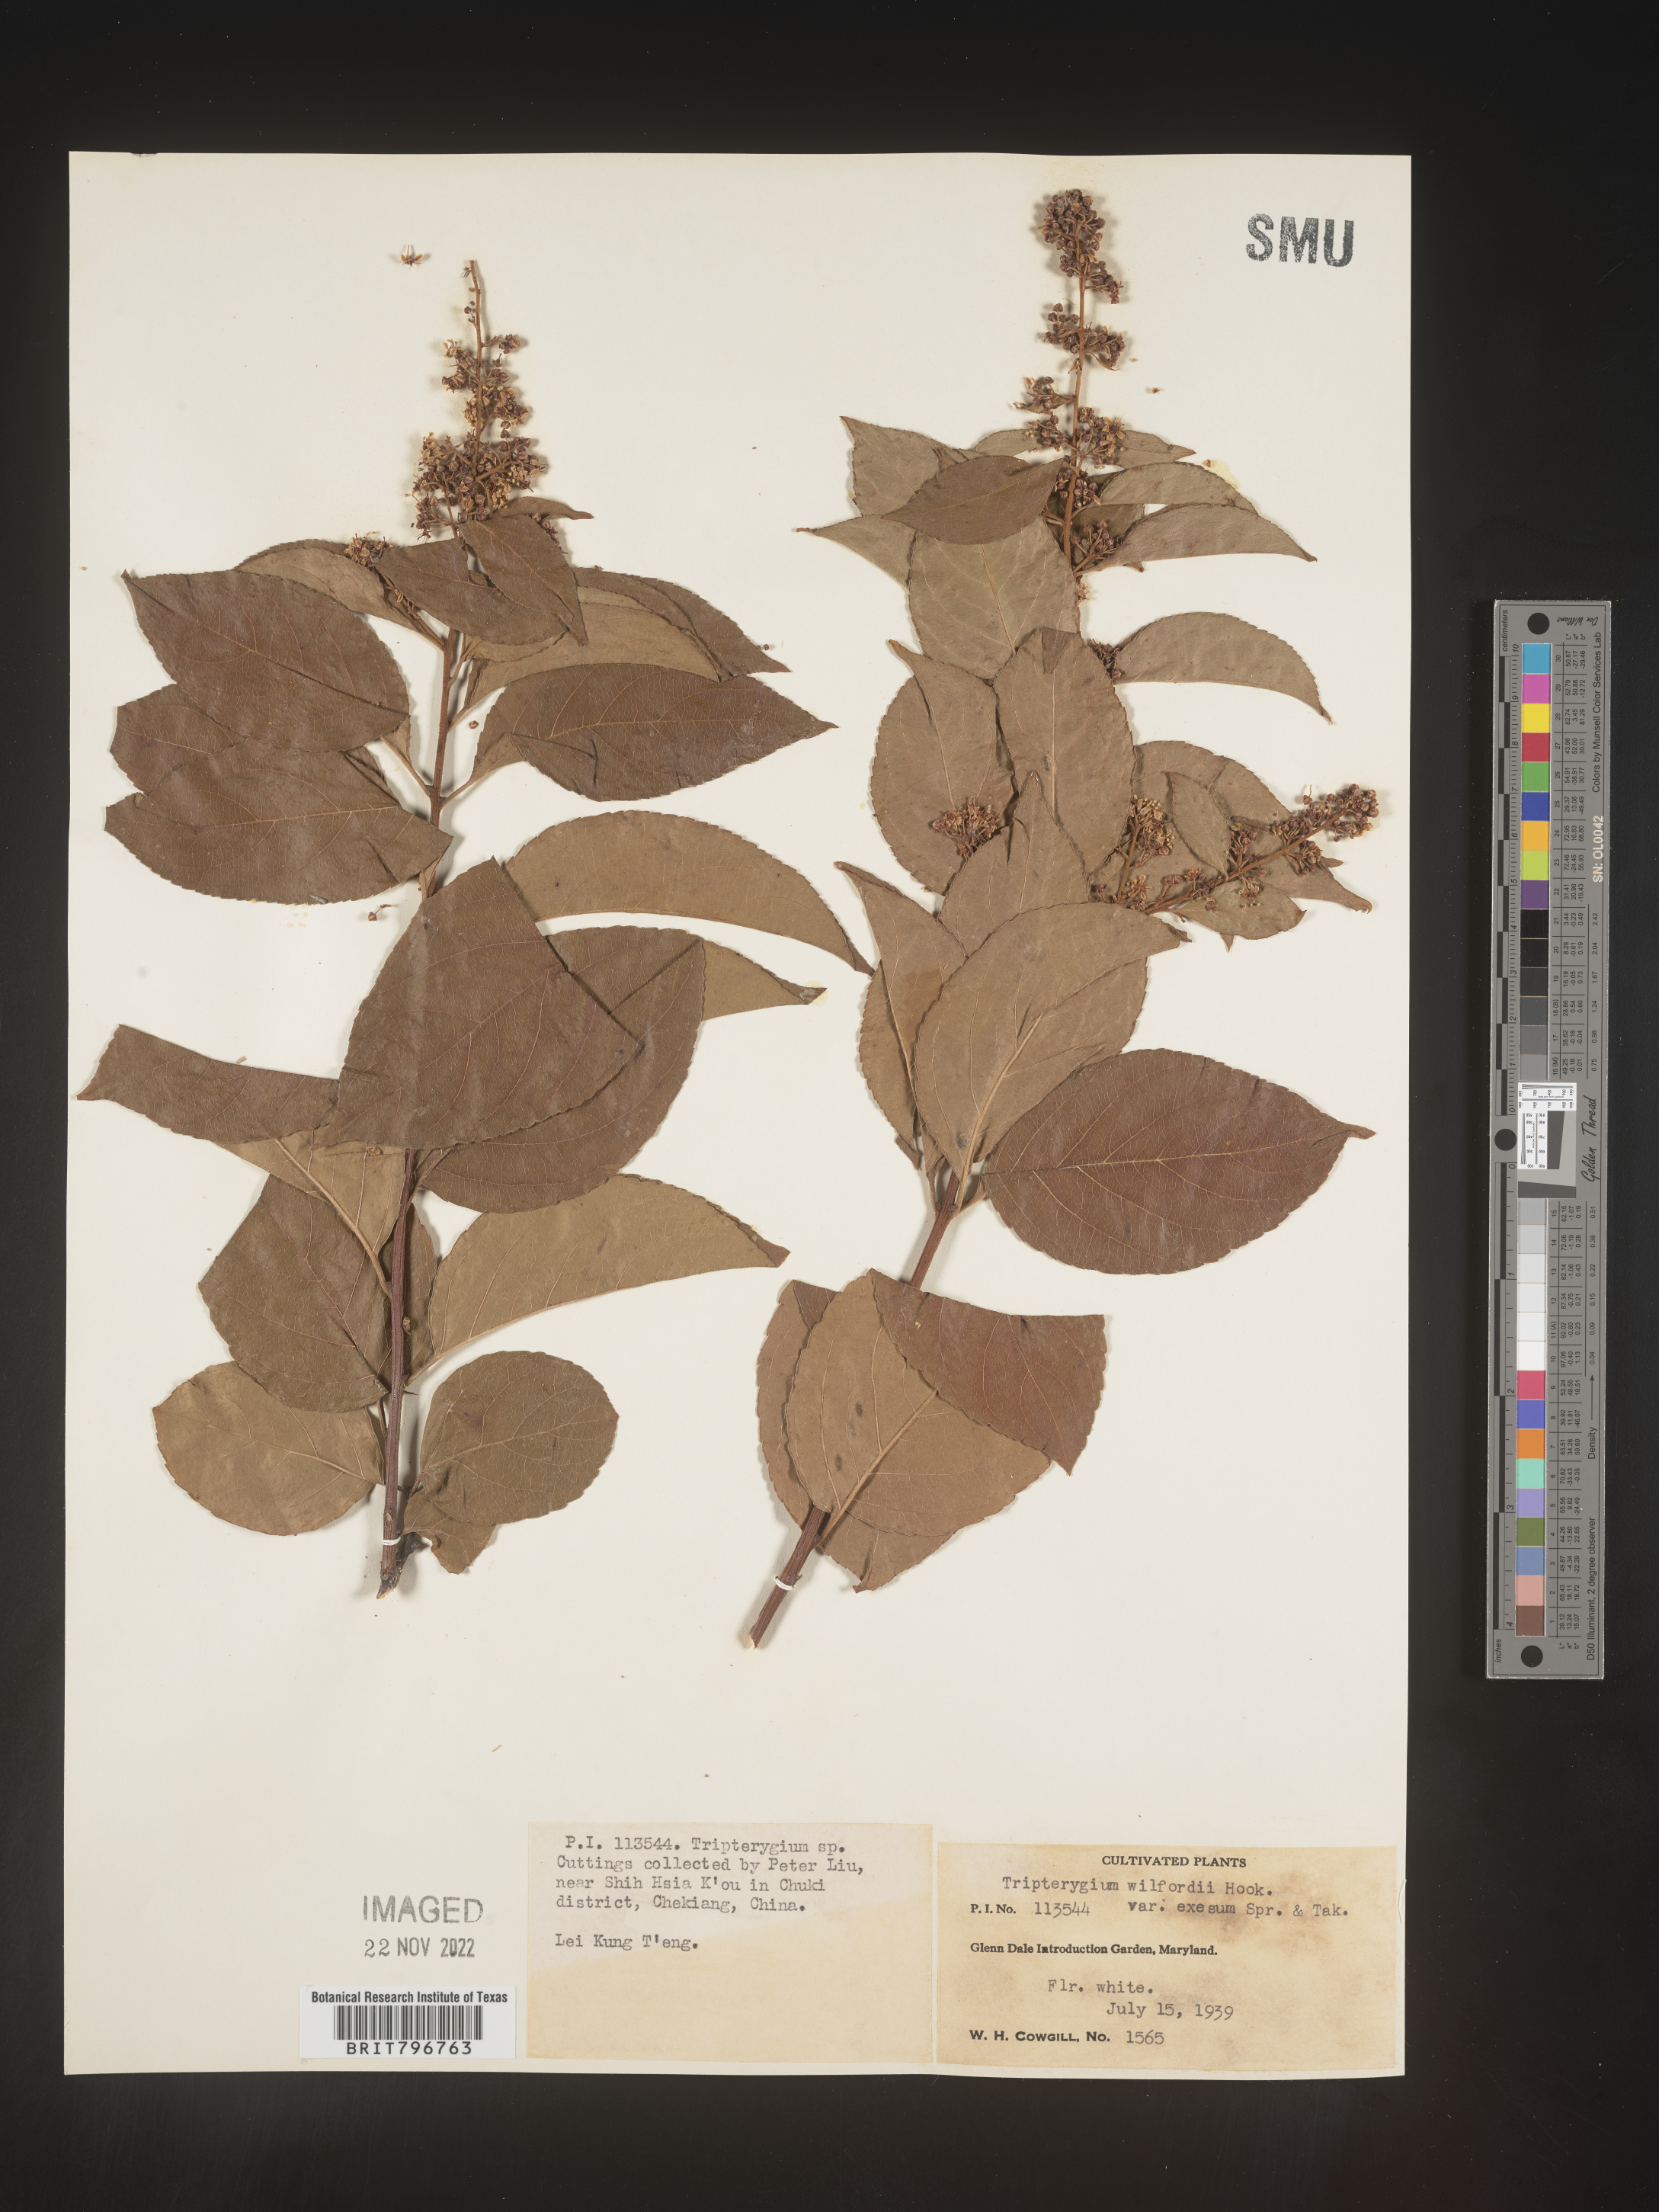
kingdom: Plantae
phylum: Tracheophyta
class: Magnoliopsida
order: Celastrales
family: Celastraceae
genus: Tripterygium
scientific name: Tripterygium
